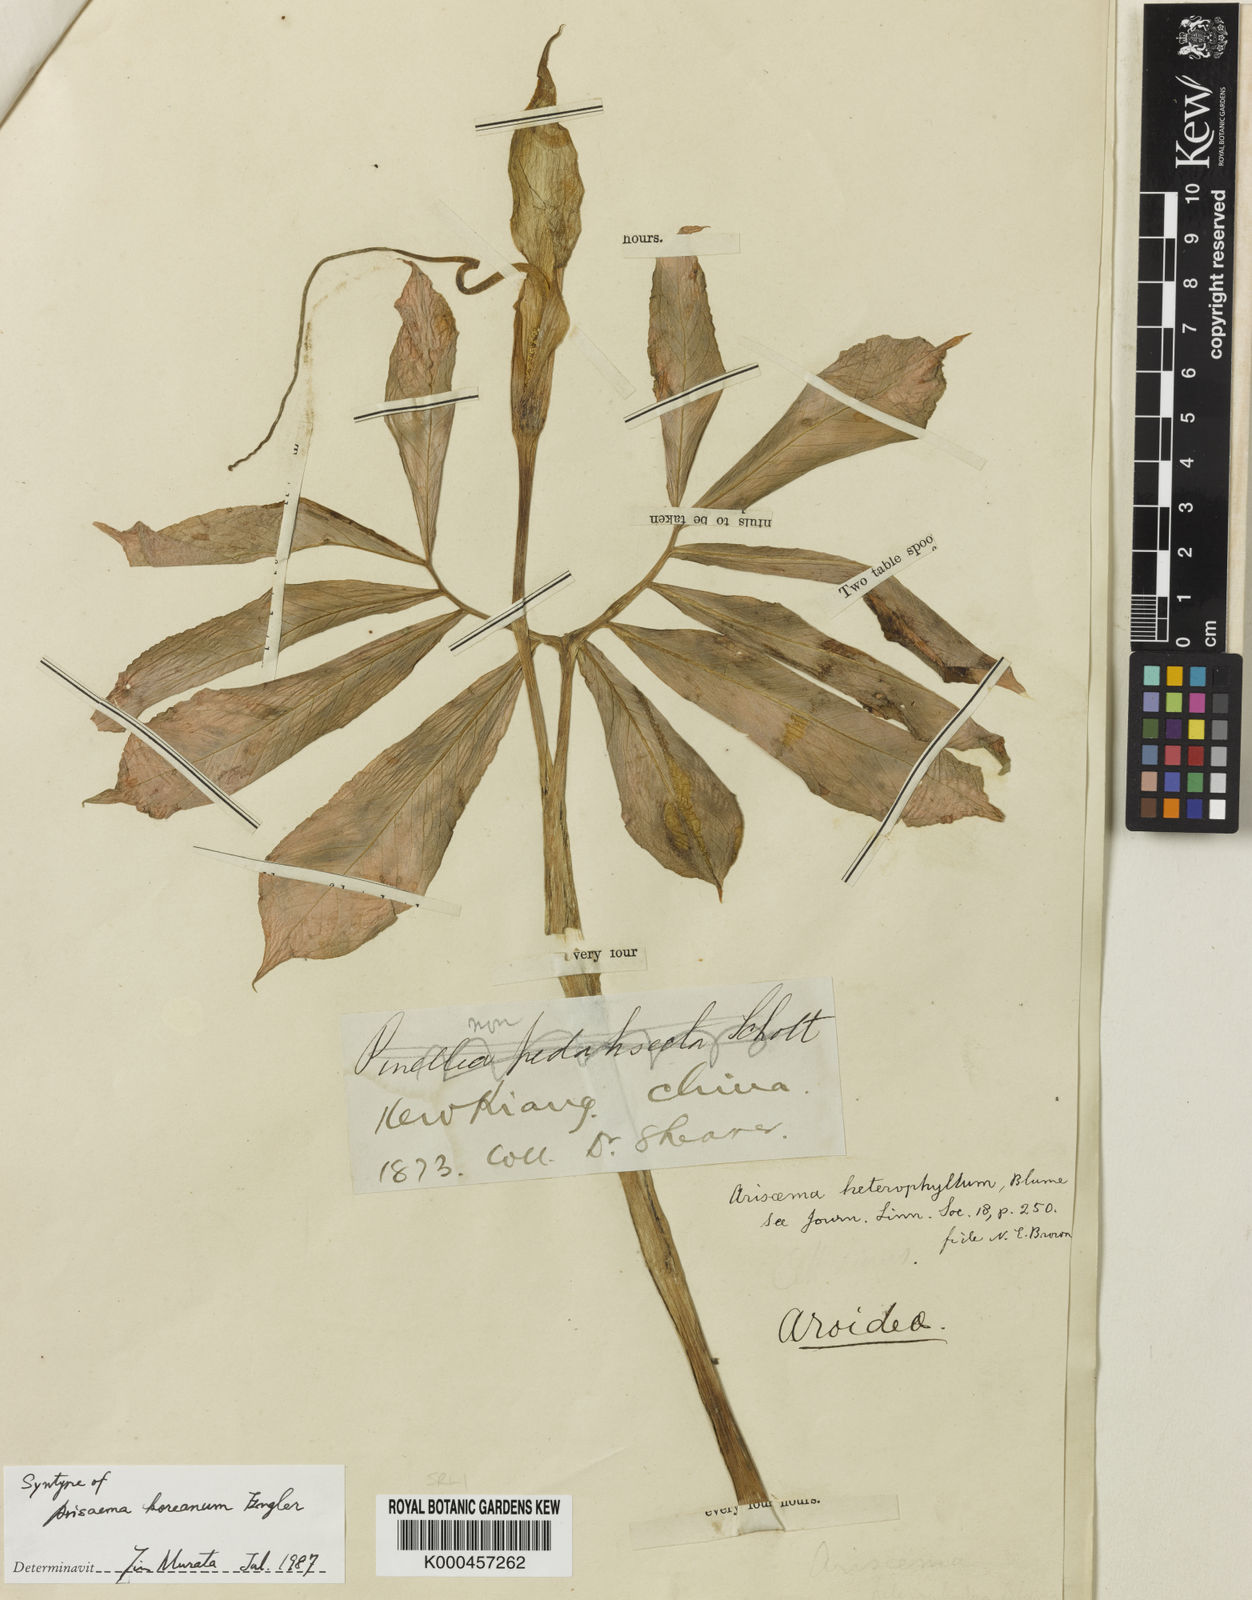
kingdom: Plantae
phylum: Tracheophyta
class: Liliopsida
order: Alismatales
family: Araceae
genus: Arisaema
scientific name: Arisaema heterophyllum
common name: Dancing crane cobra lily
